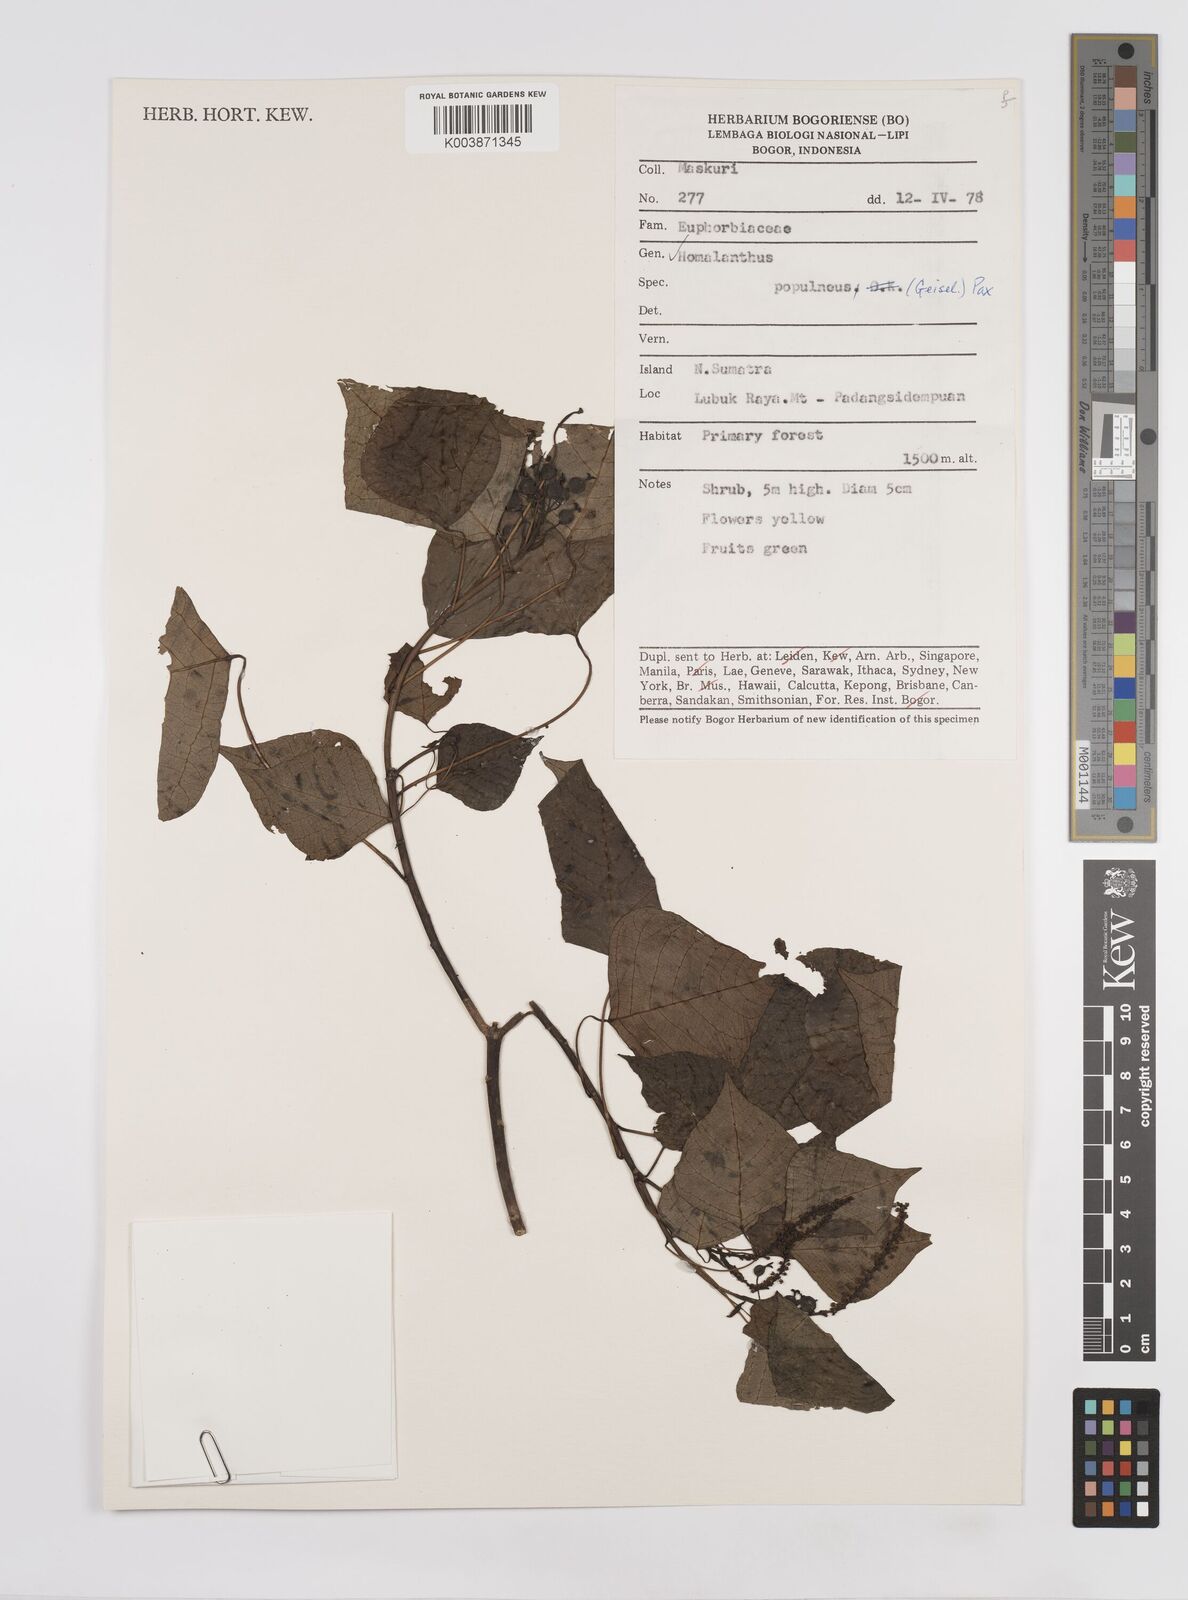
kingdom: Plantae
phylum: Tracheophyta
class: Magnoliopsida
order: Malpighiales
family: Euphorbiaceae
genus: Homalanthus
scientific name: Homalanthus populneus
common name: Spurge
